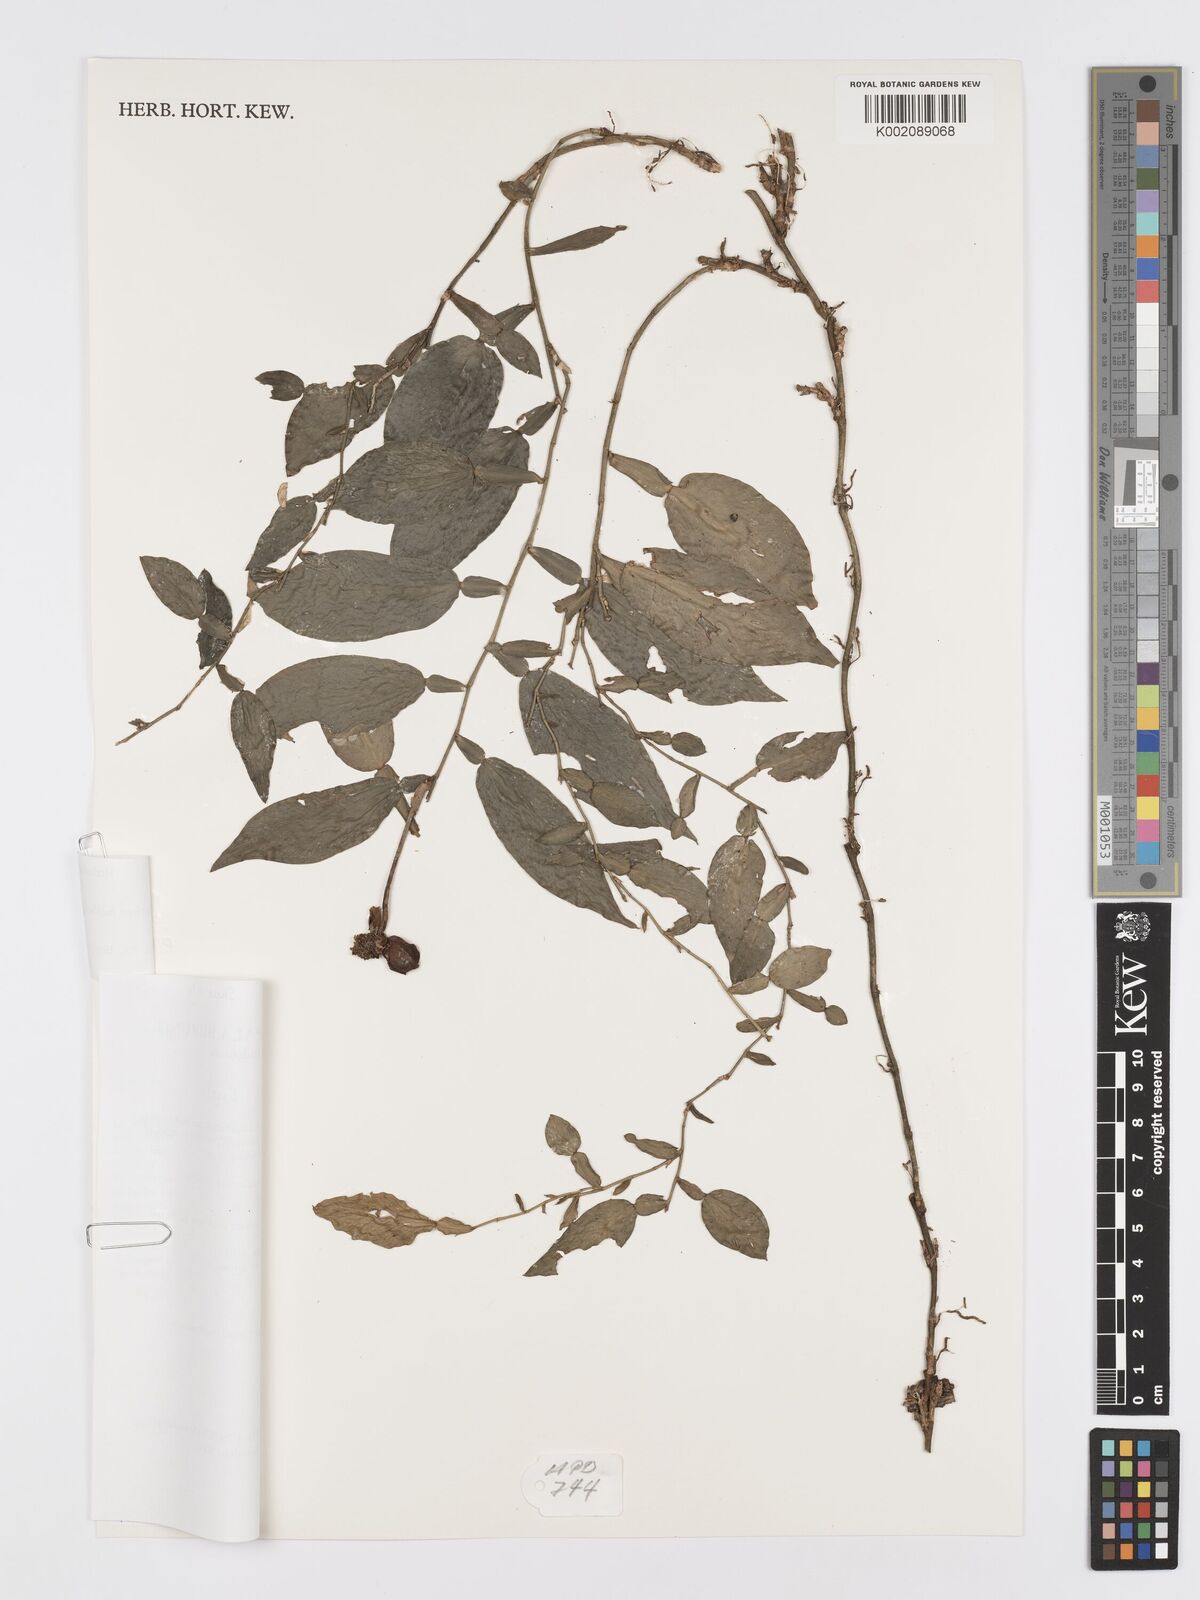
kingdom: Plantae
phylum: Tracheophyta
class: Liliopsida
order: Alismatales
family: Araceae
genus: Pothos
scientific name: Pothos hellwigii
